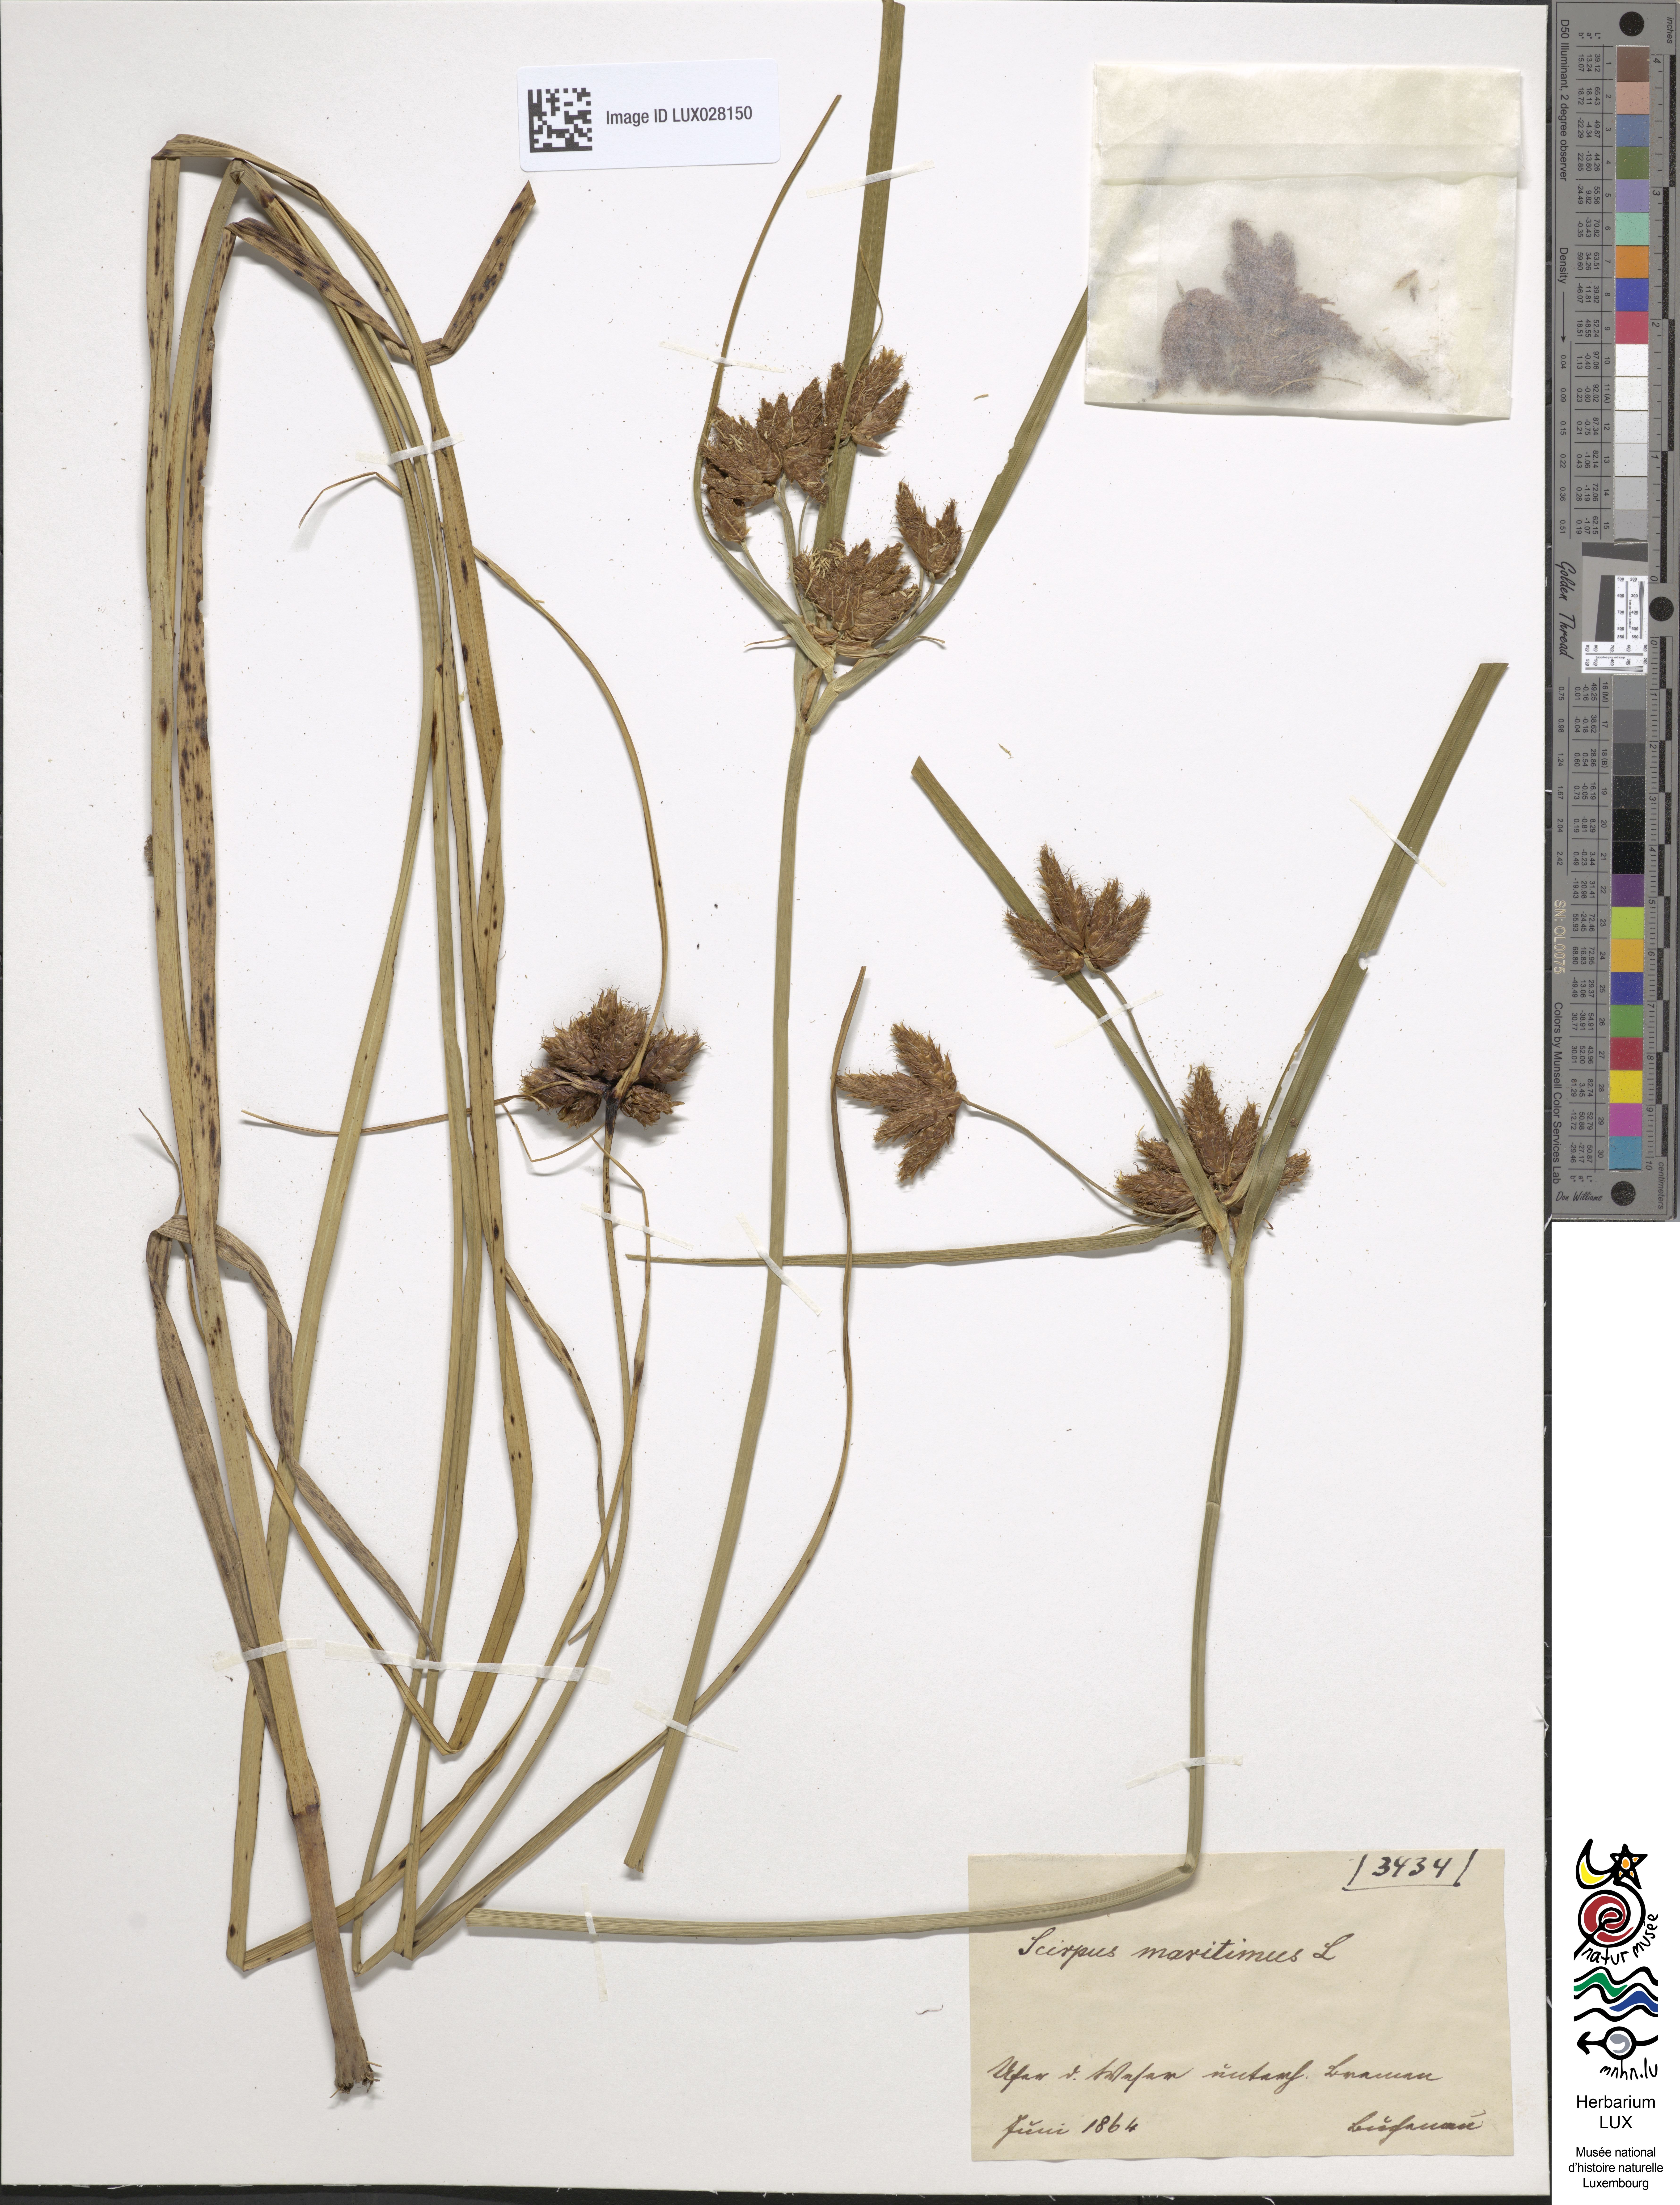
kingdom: Plantae
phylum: Tracheophyta
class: Liliopsida
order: Poales
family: Cyperaceae
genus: Bolboschoenus
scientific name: Bolboschoenus maritimus
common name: Sea club-rush
